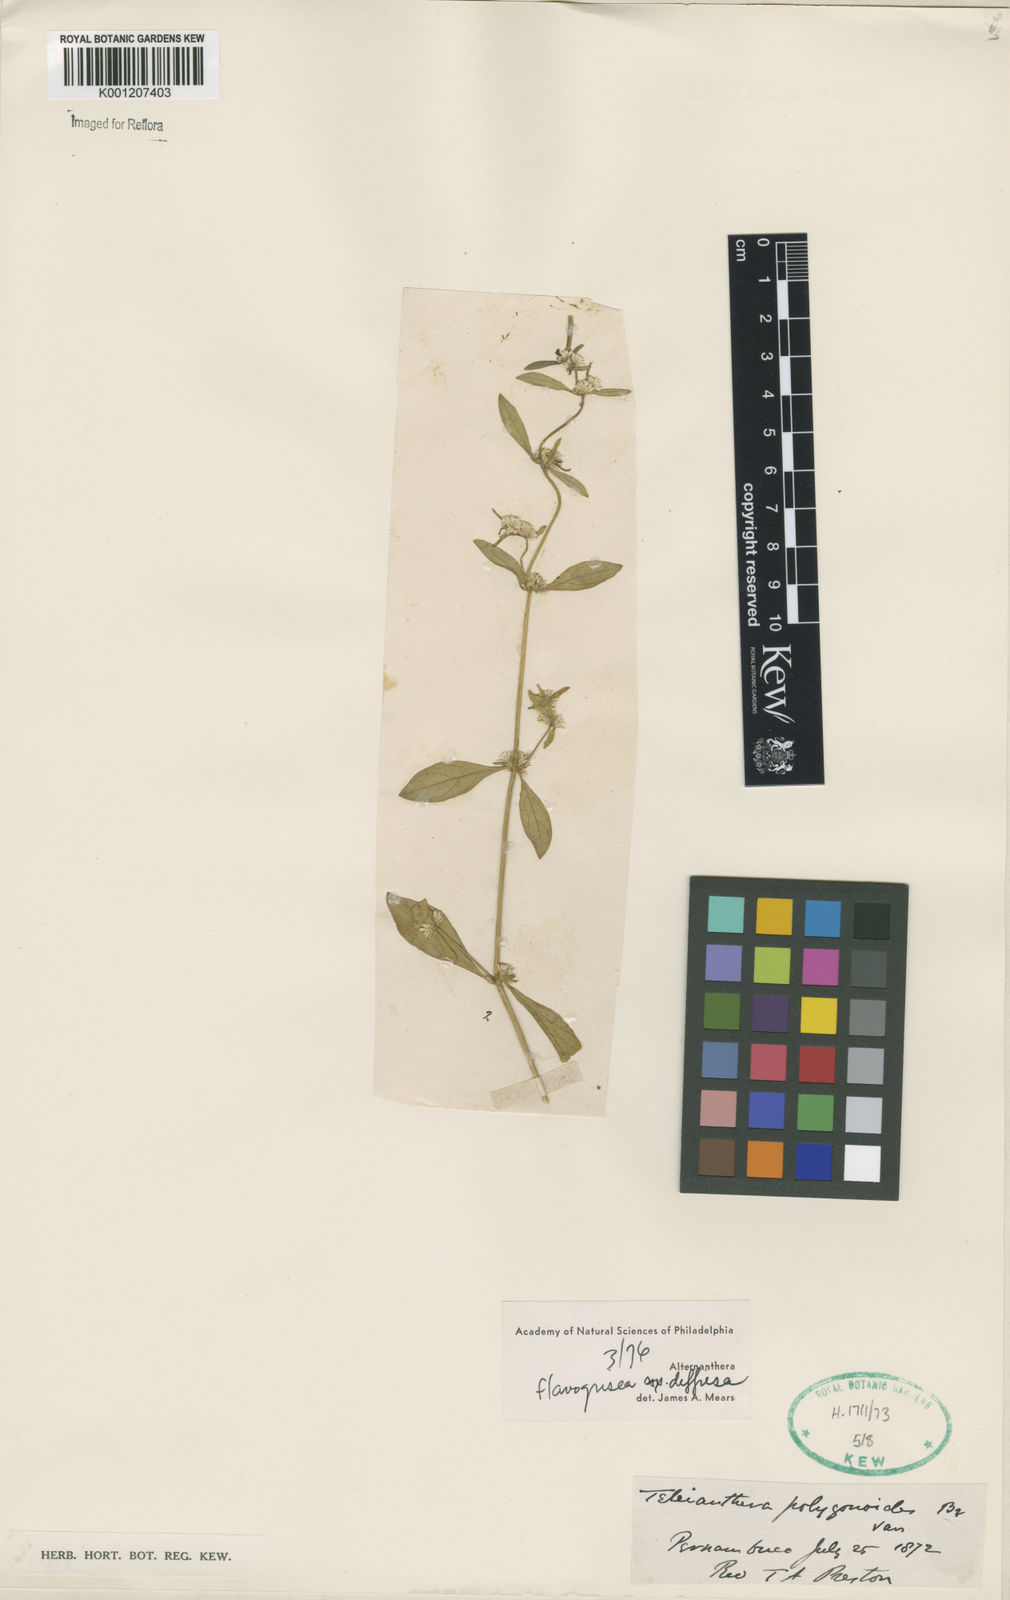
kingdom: Plantae
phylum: Tracheophyta
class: Magnoliopsida
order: Caryophyllales
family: Amaranthaceae
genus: Alternanthera
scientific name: Alternanthera halimifolia
